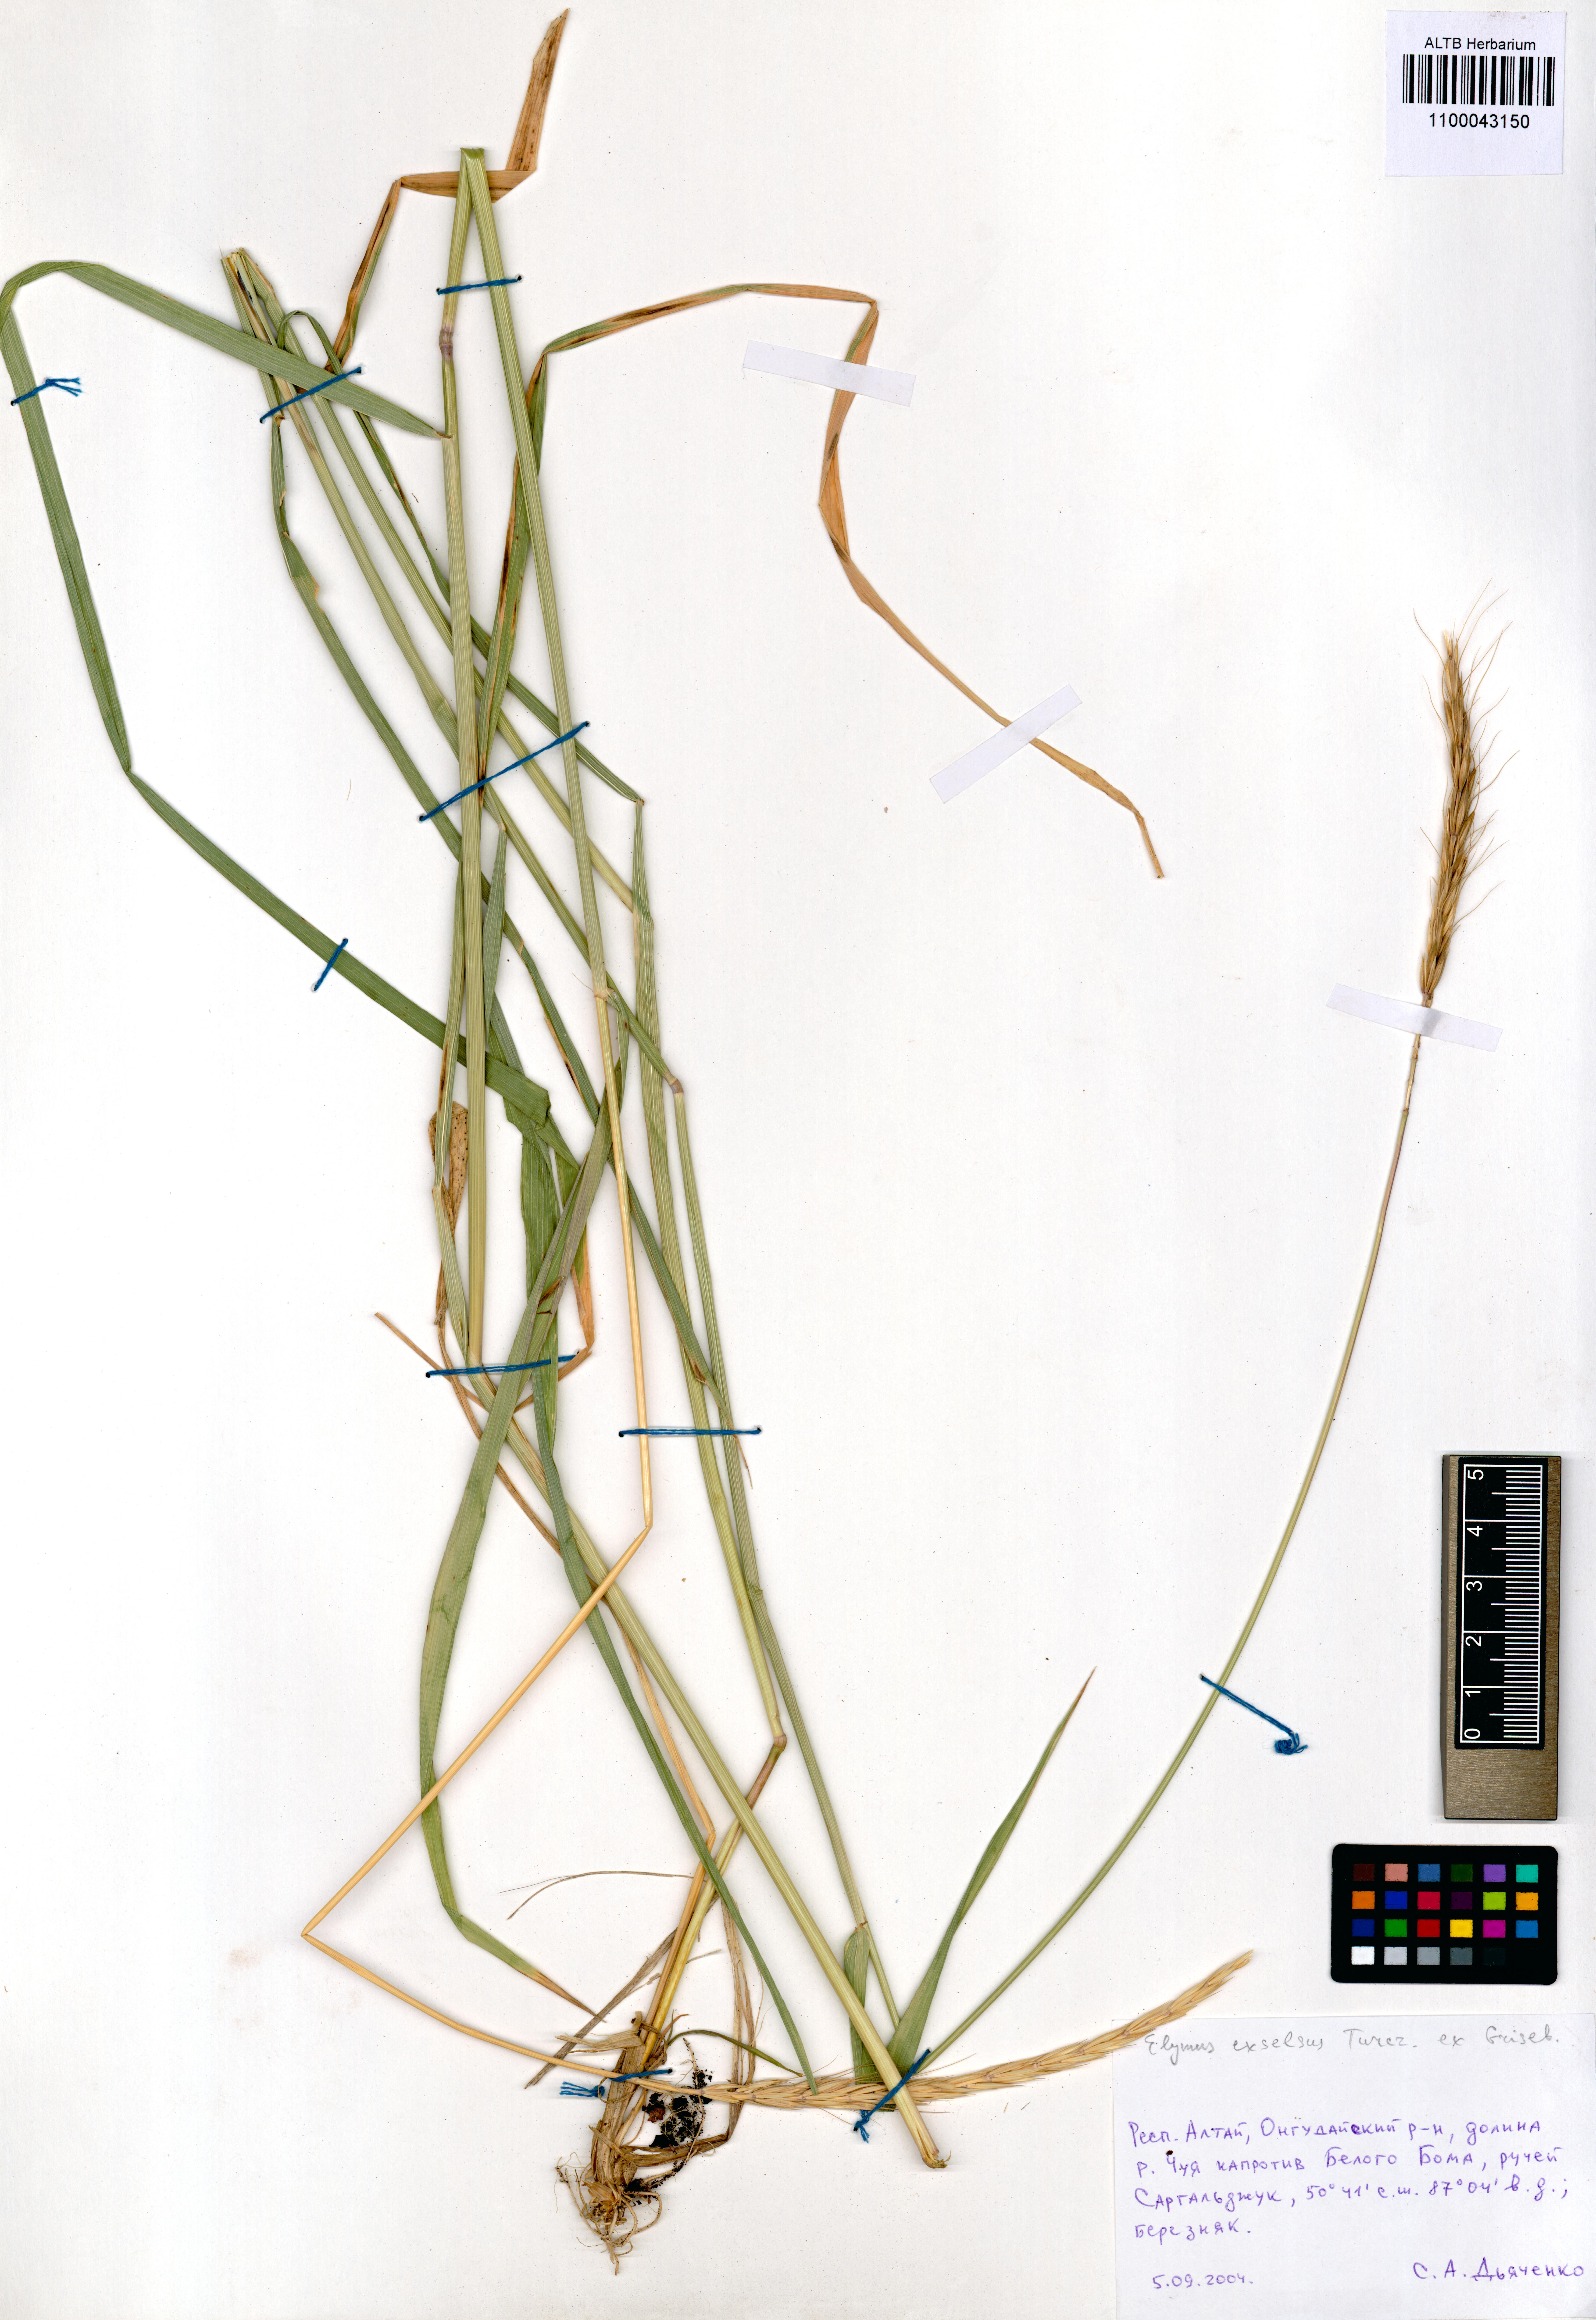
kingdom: Plantae
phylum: Tracheophyta
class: Liliopsida
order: Poales
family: Poaceae
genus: Elymus
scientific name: Elymus dahuricus
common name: Dahurian wild rye
